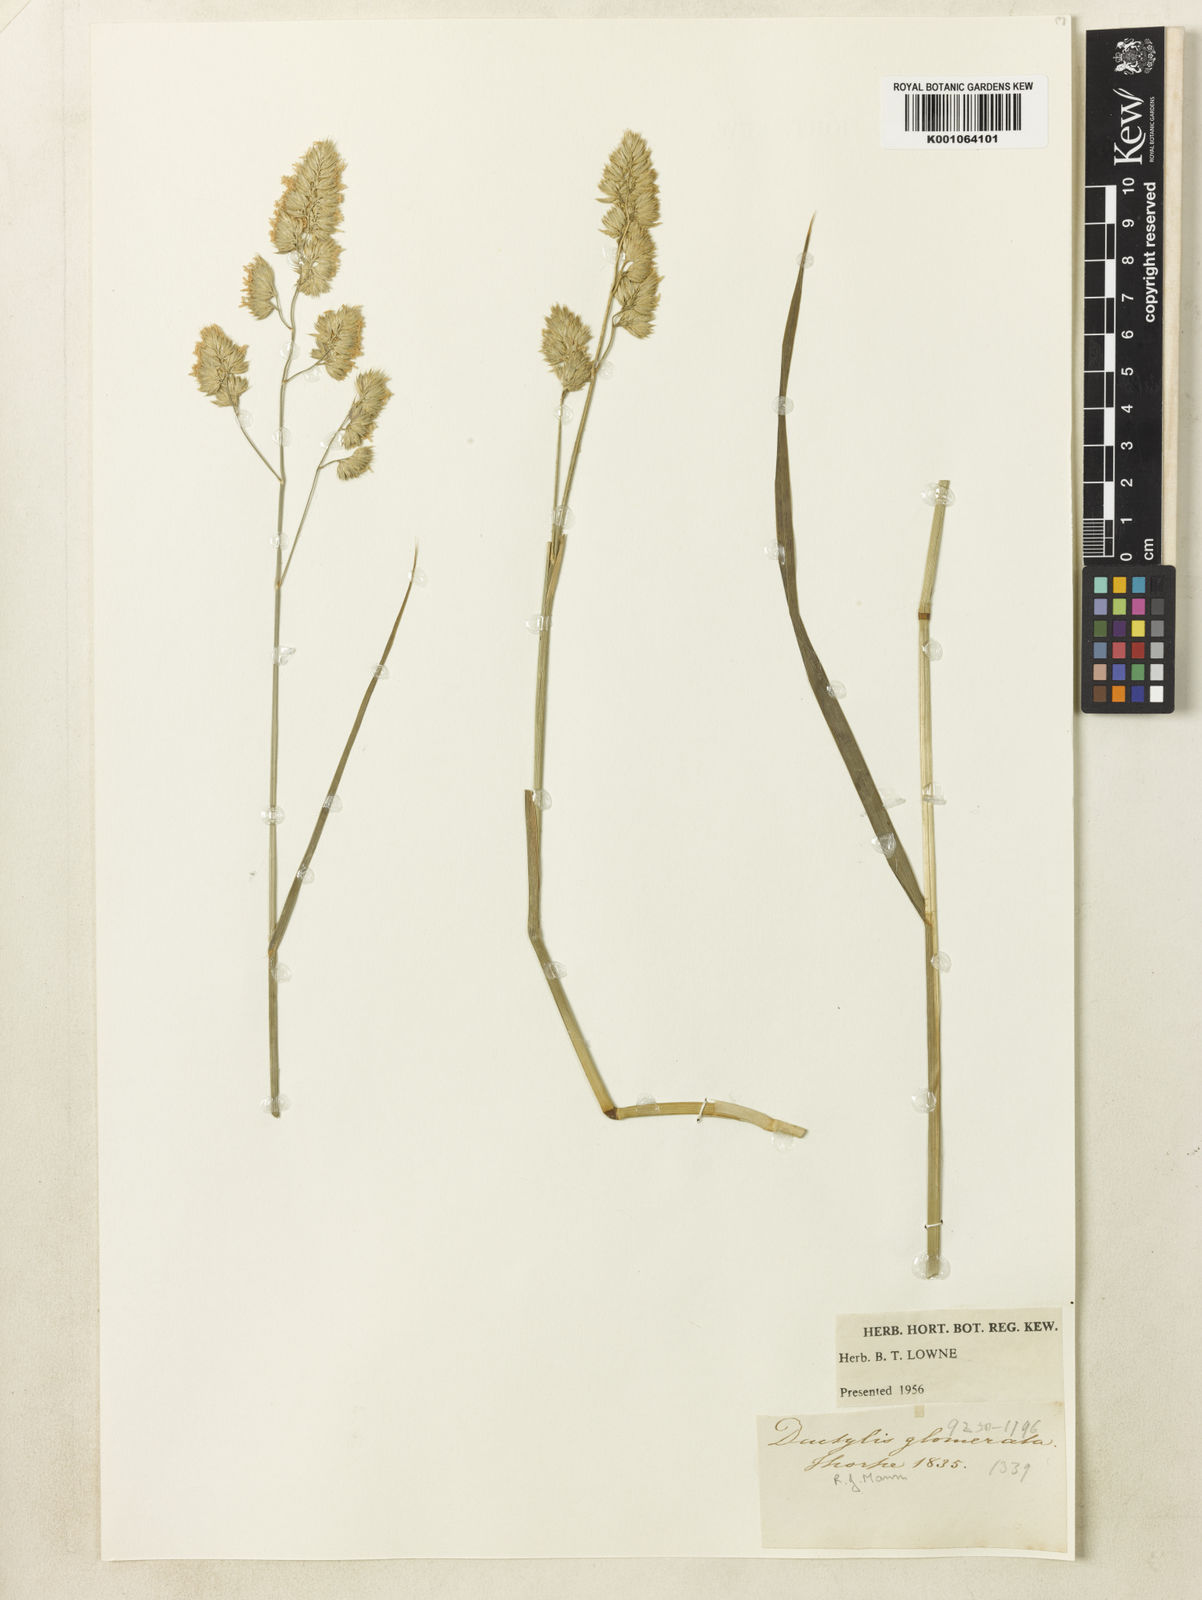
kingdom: Plantae
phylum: Tracheophyta
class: Liliopsida
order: Poales
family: Poaceae
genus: Dactylis
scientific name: Dactylis glomerata
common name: Orchardgrass
